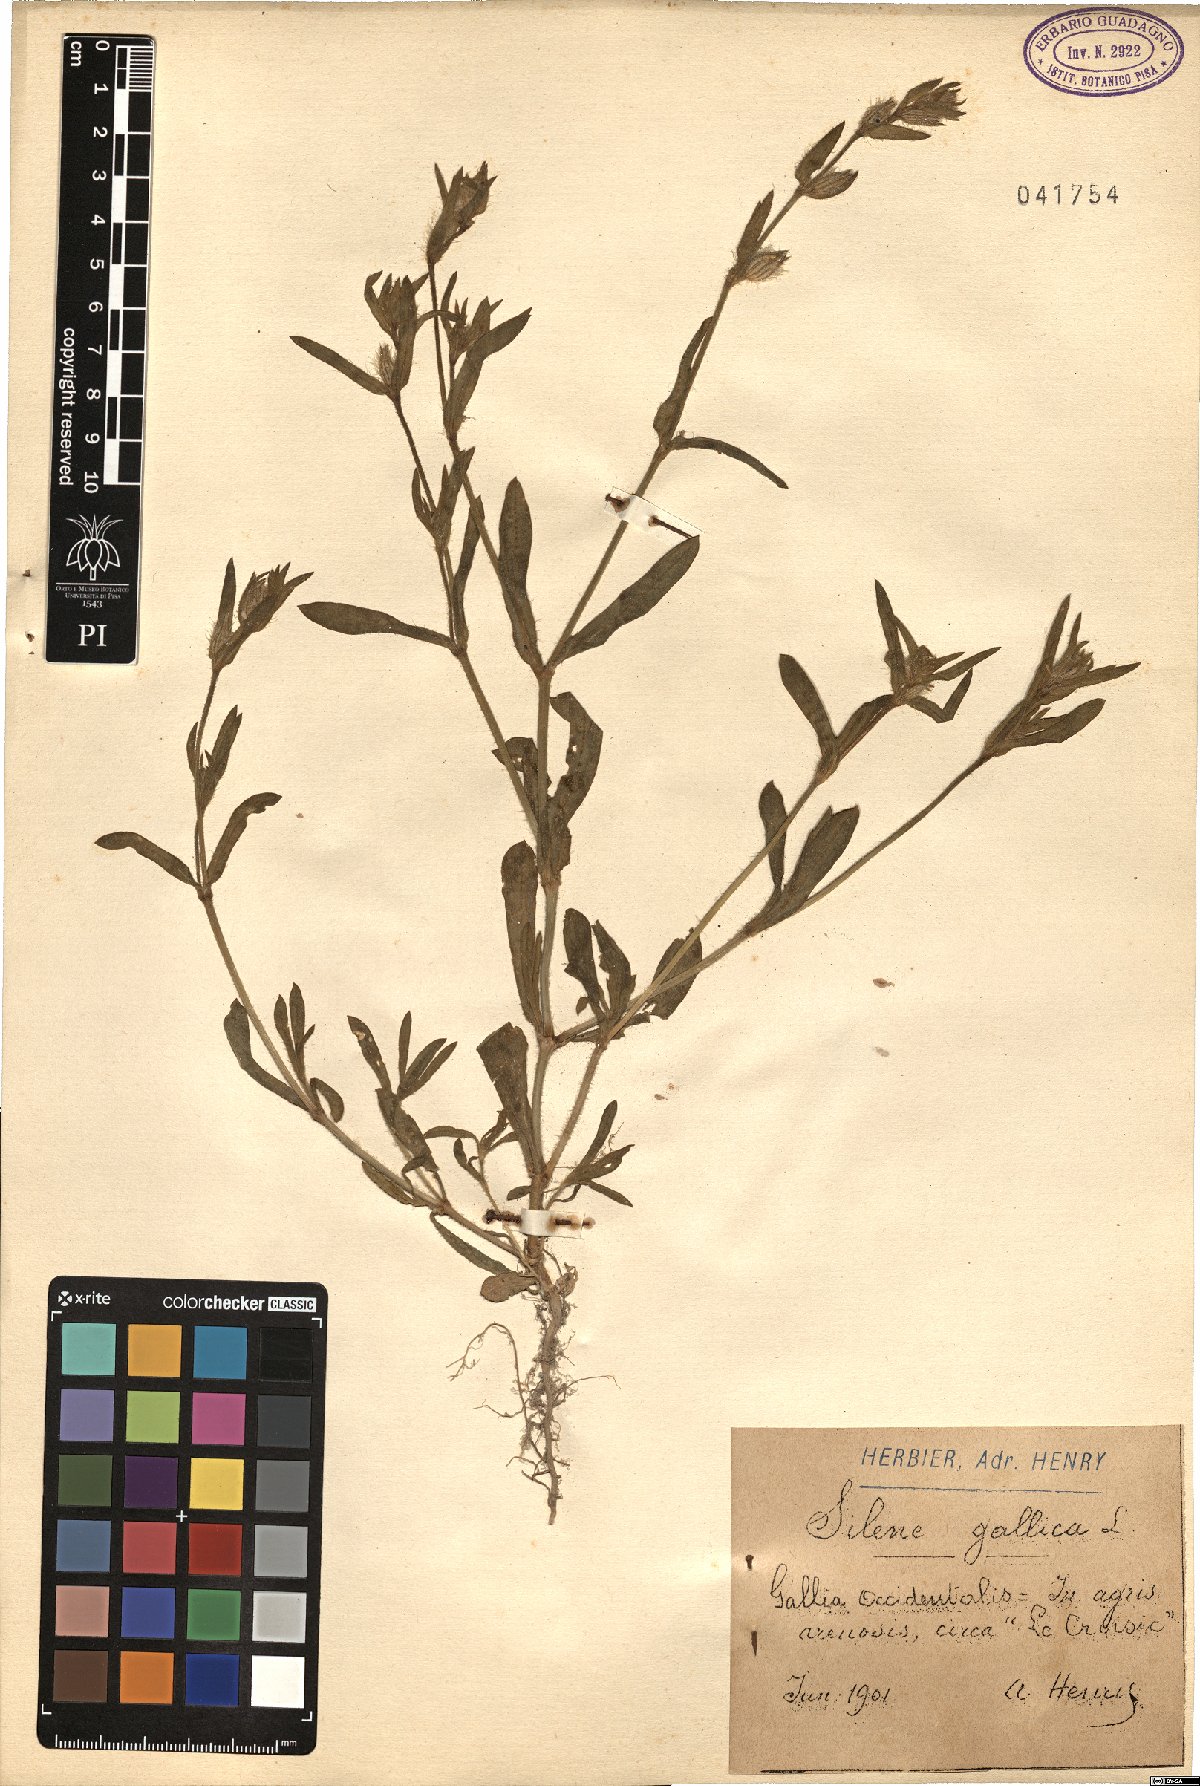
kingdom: Plantae
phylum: Tracheophyta
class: Magnoliopsida
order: Caryophyllales
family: Caryophyllaceae
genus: Silene
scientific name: Silene gallica
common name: Small-flowered catchfly
